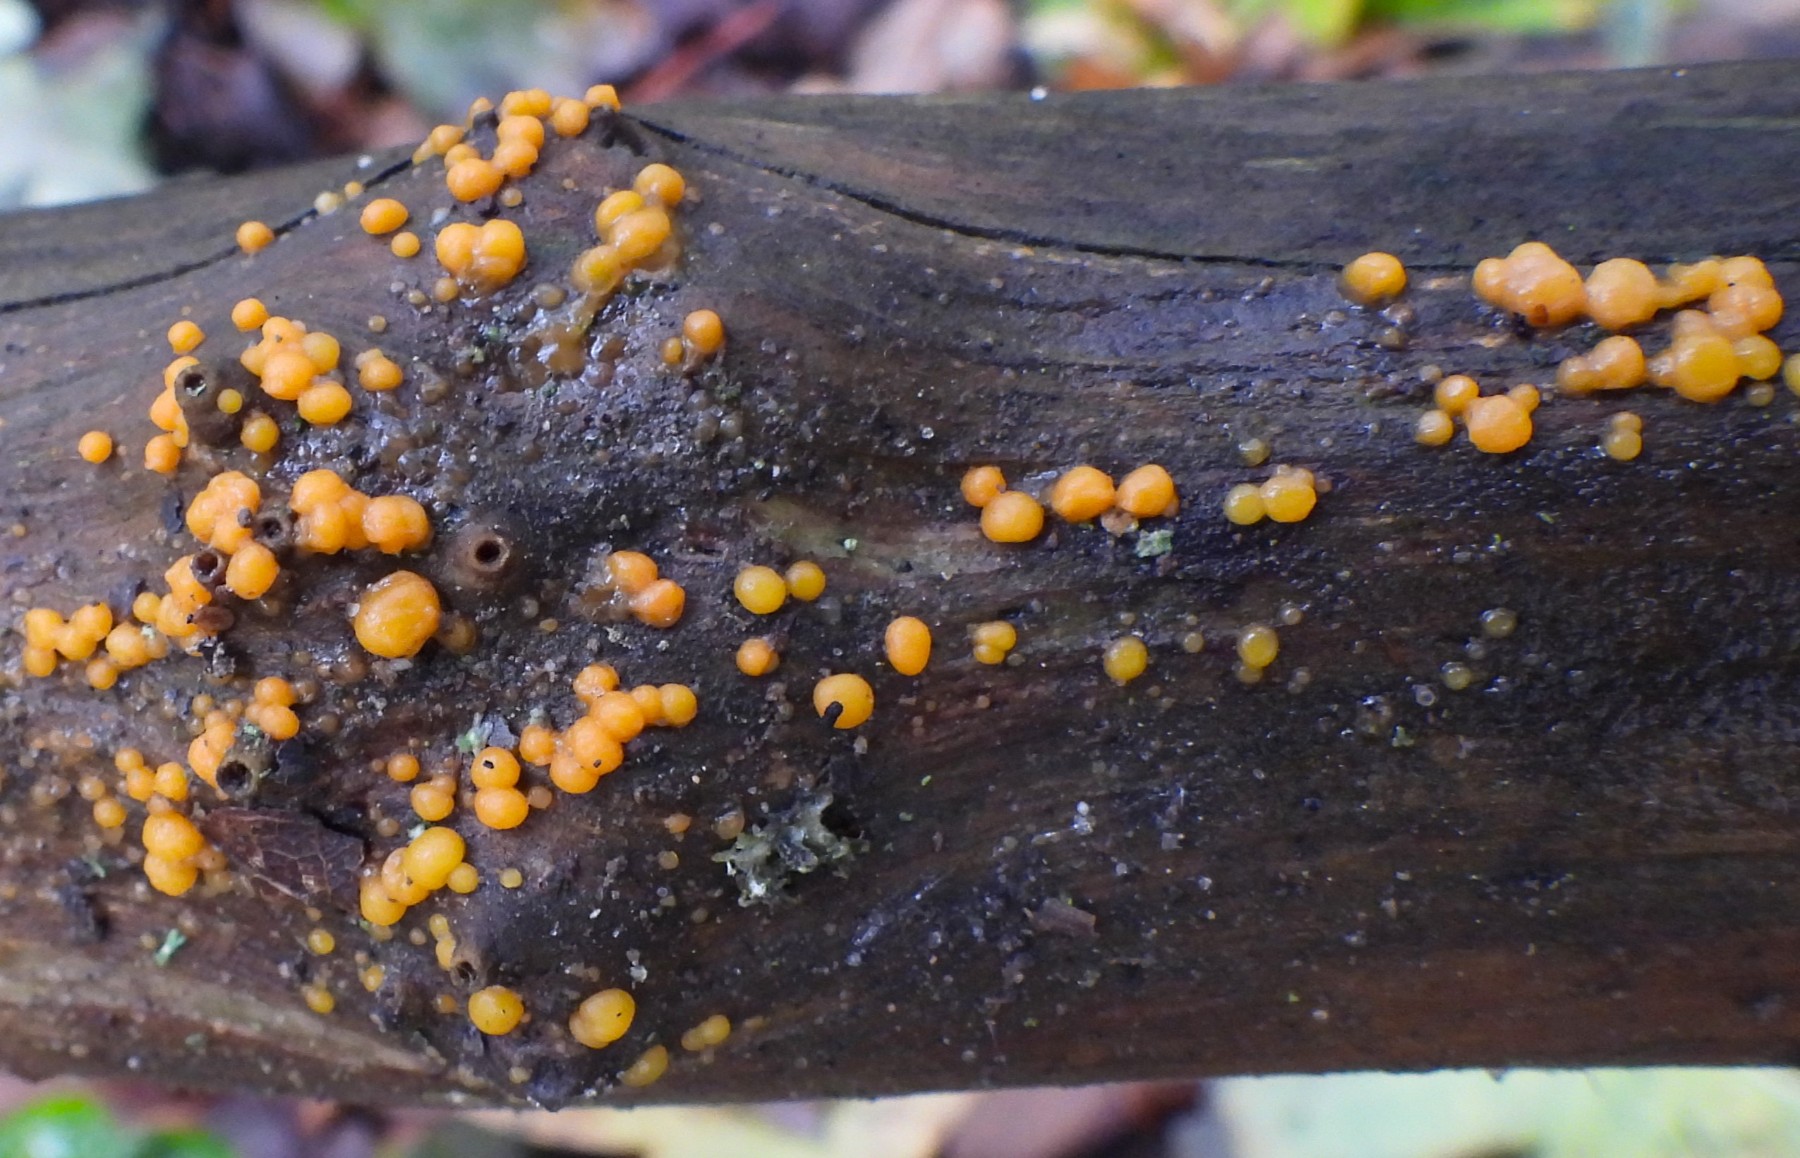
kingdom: Fungi
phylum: Basidiomycota
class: Dacrymycetes
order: Dacrymycetales
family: Dacrymycetaceae
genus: Dacrymyces
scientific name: Dacrymyces stillatus
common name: almindelig tåresvamp
